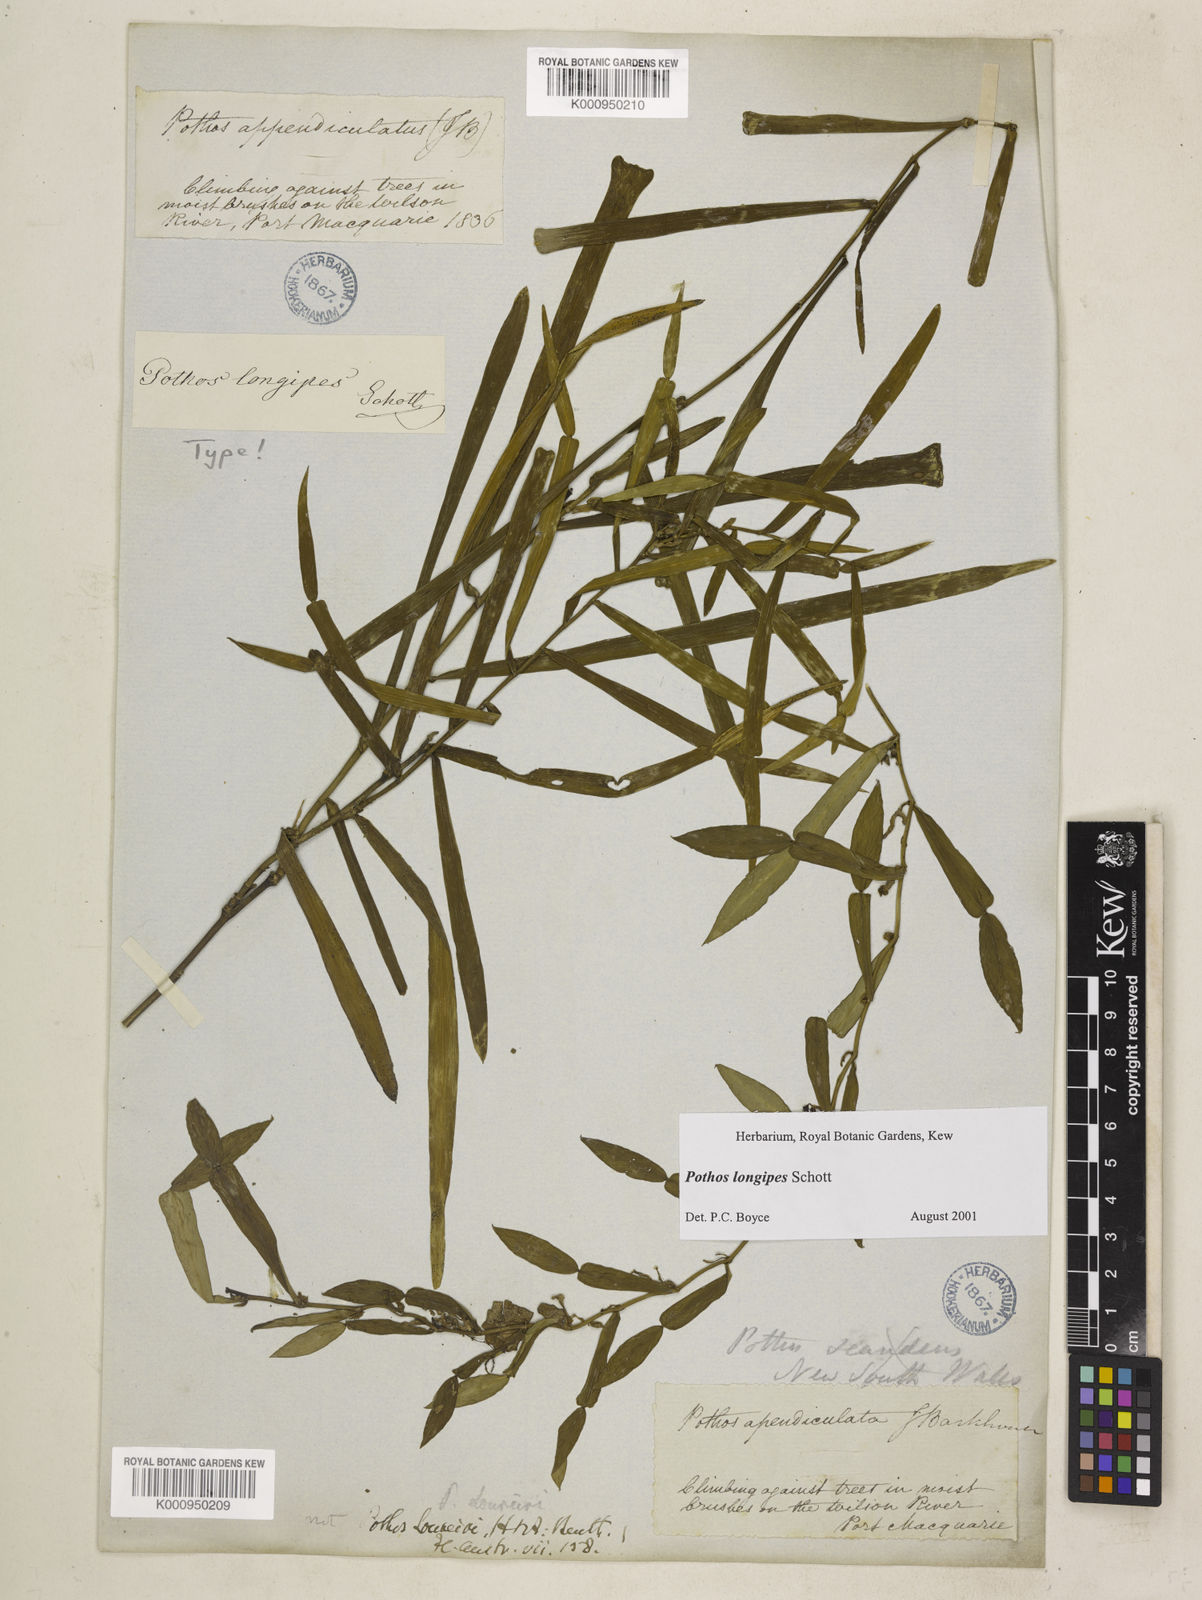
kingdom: Plantae
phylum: Tracheophyta
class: Liliopsida
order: Alismatales
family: Araceae
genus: Pothos
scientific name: Pothos longipes
